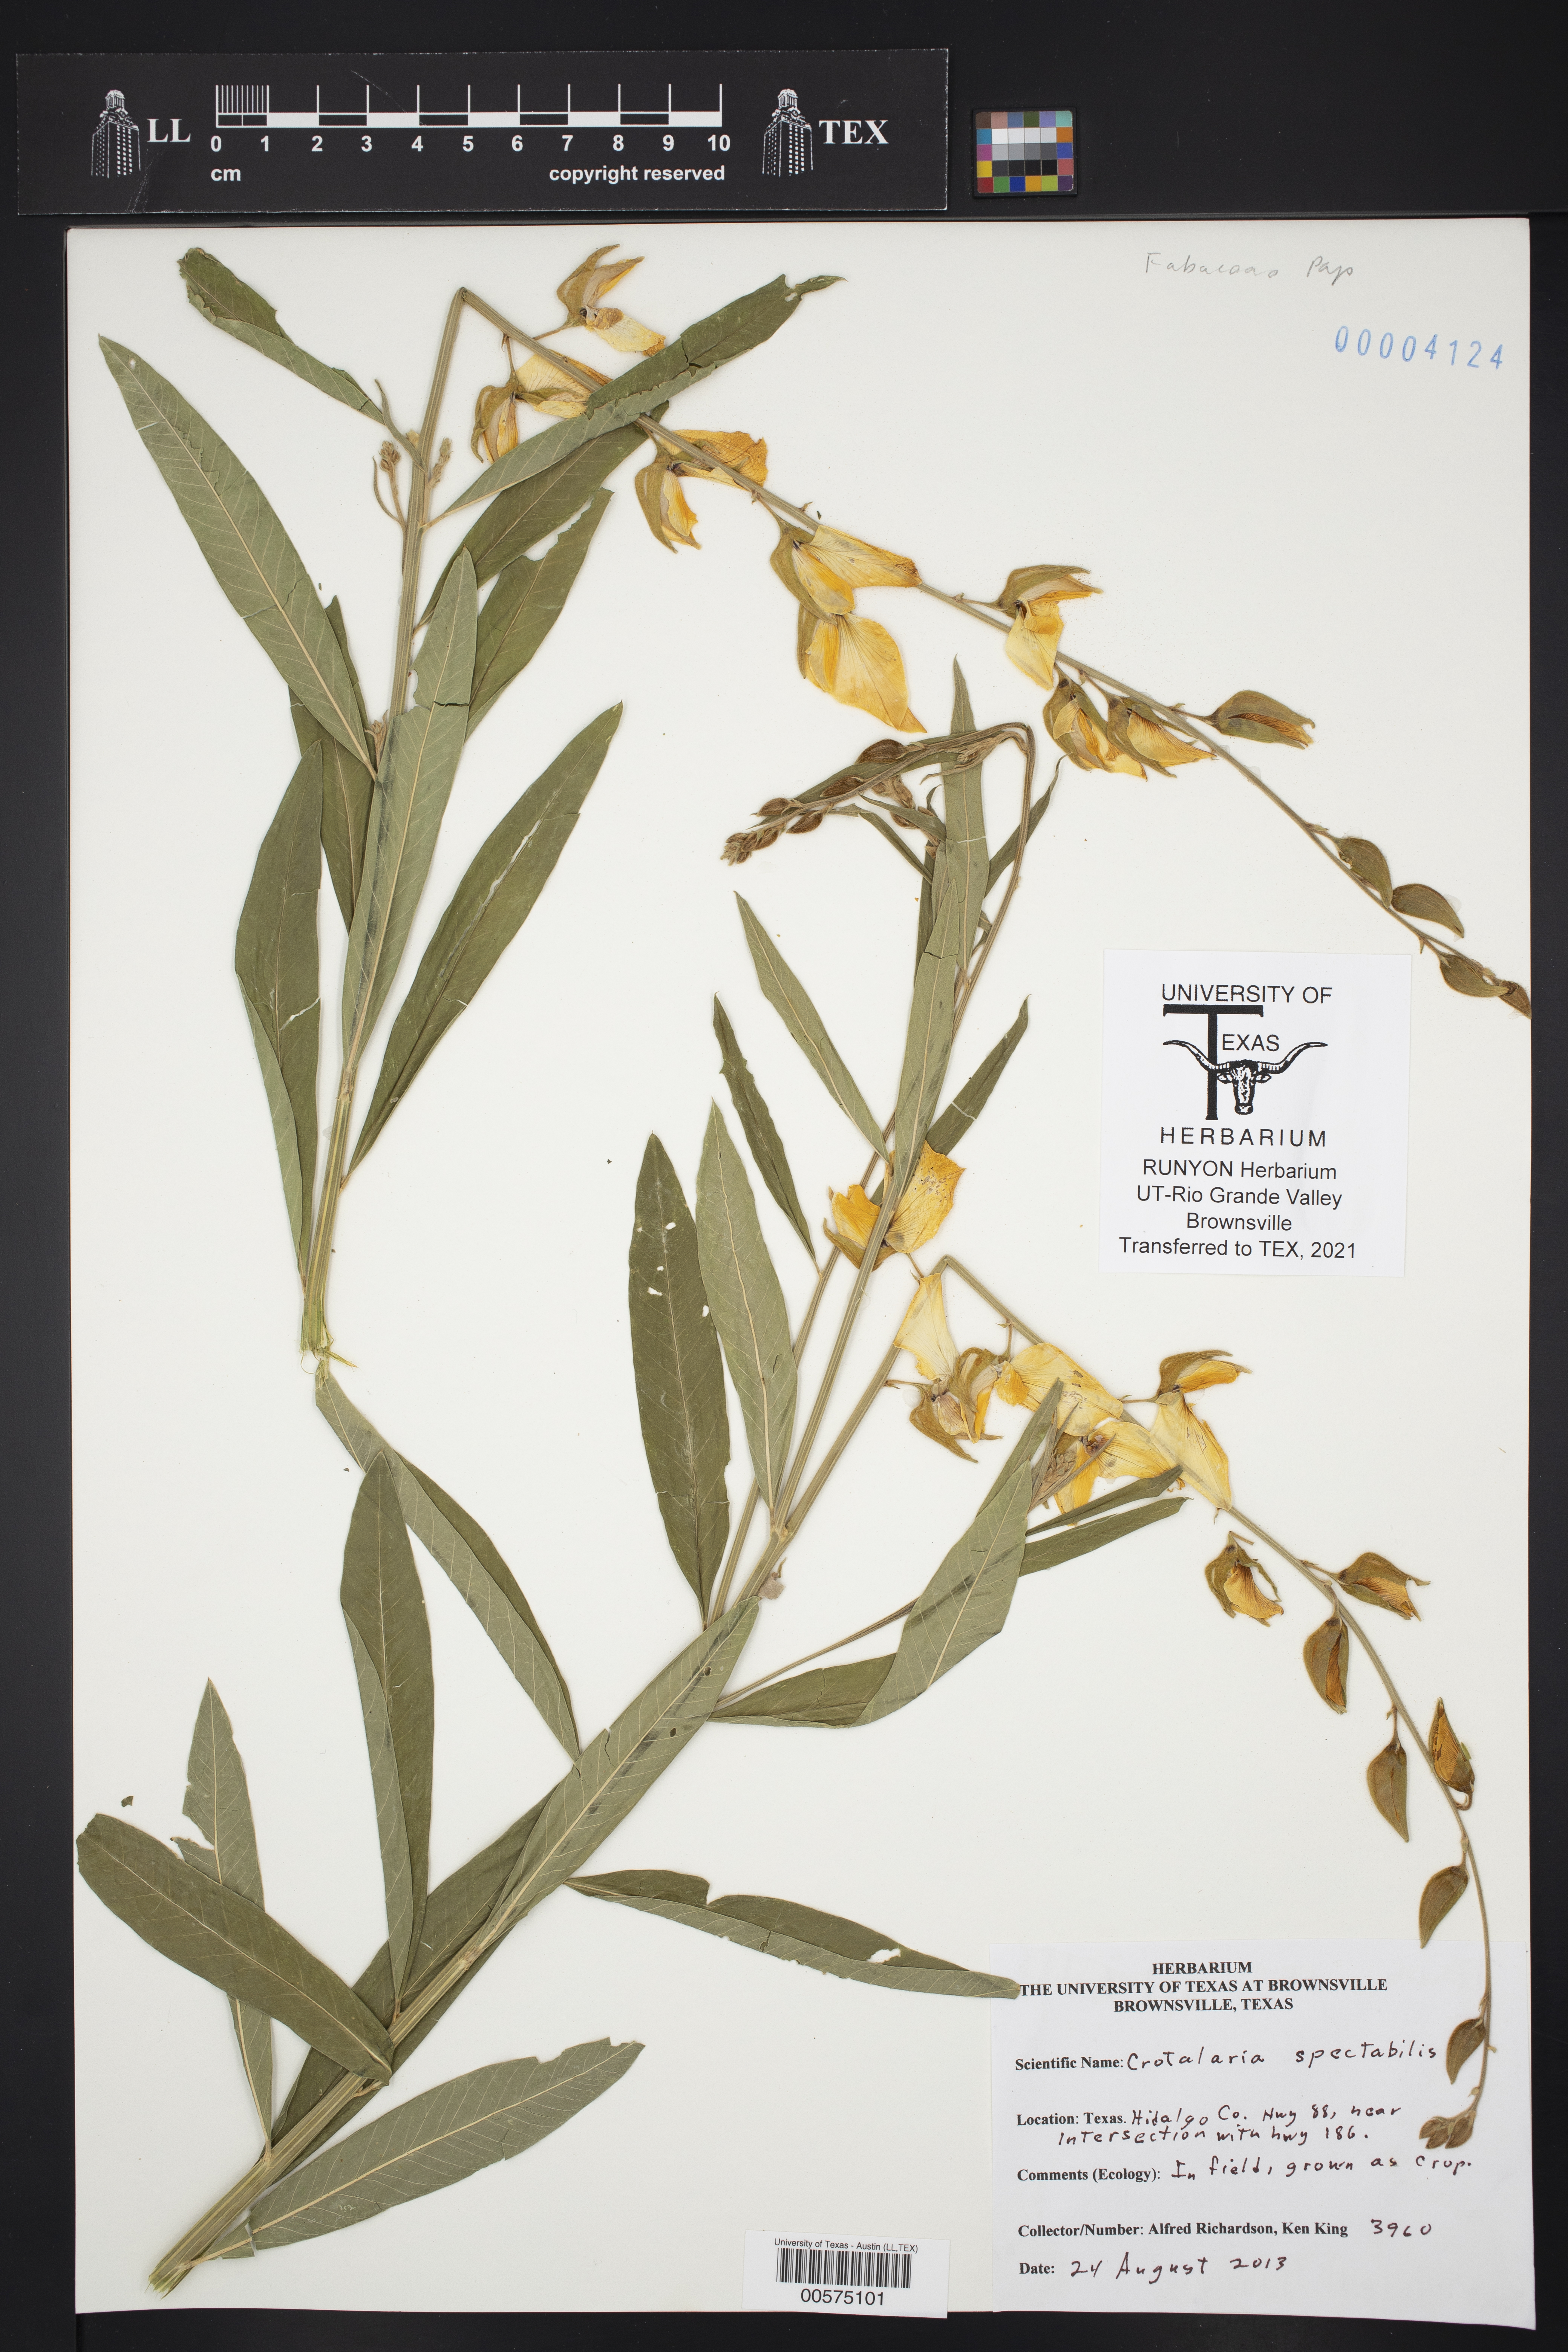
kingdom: Plantae
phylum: Tracheophyta
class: Magnoliopsida
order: Fabales
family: Fabaceae
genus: Crotalaria
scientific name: Crotalaria spectabilis
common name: Showy rattlebox
